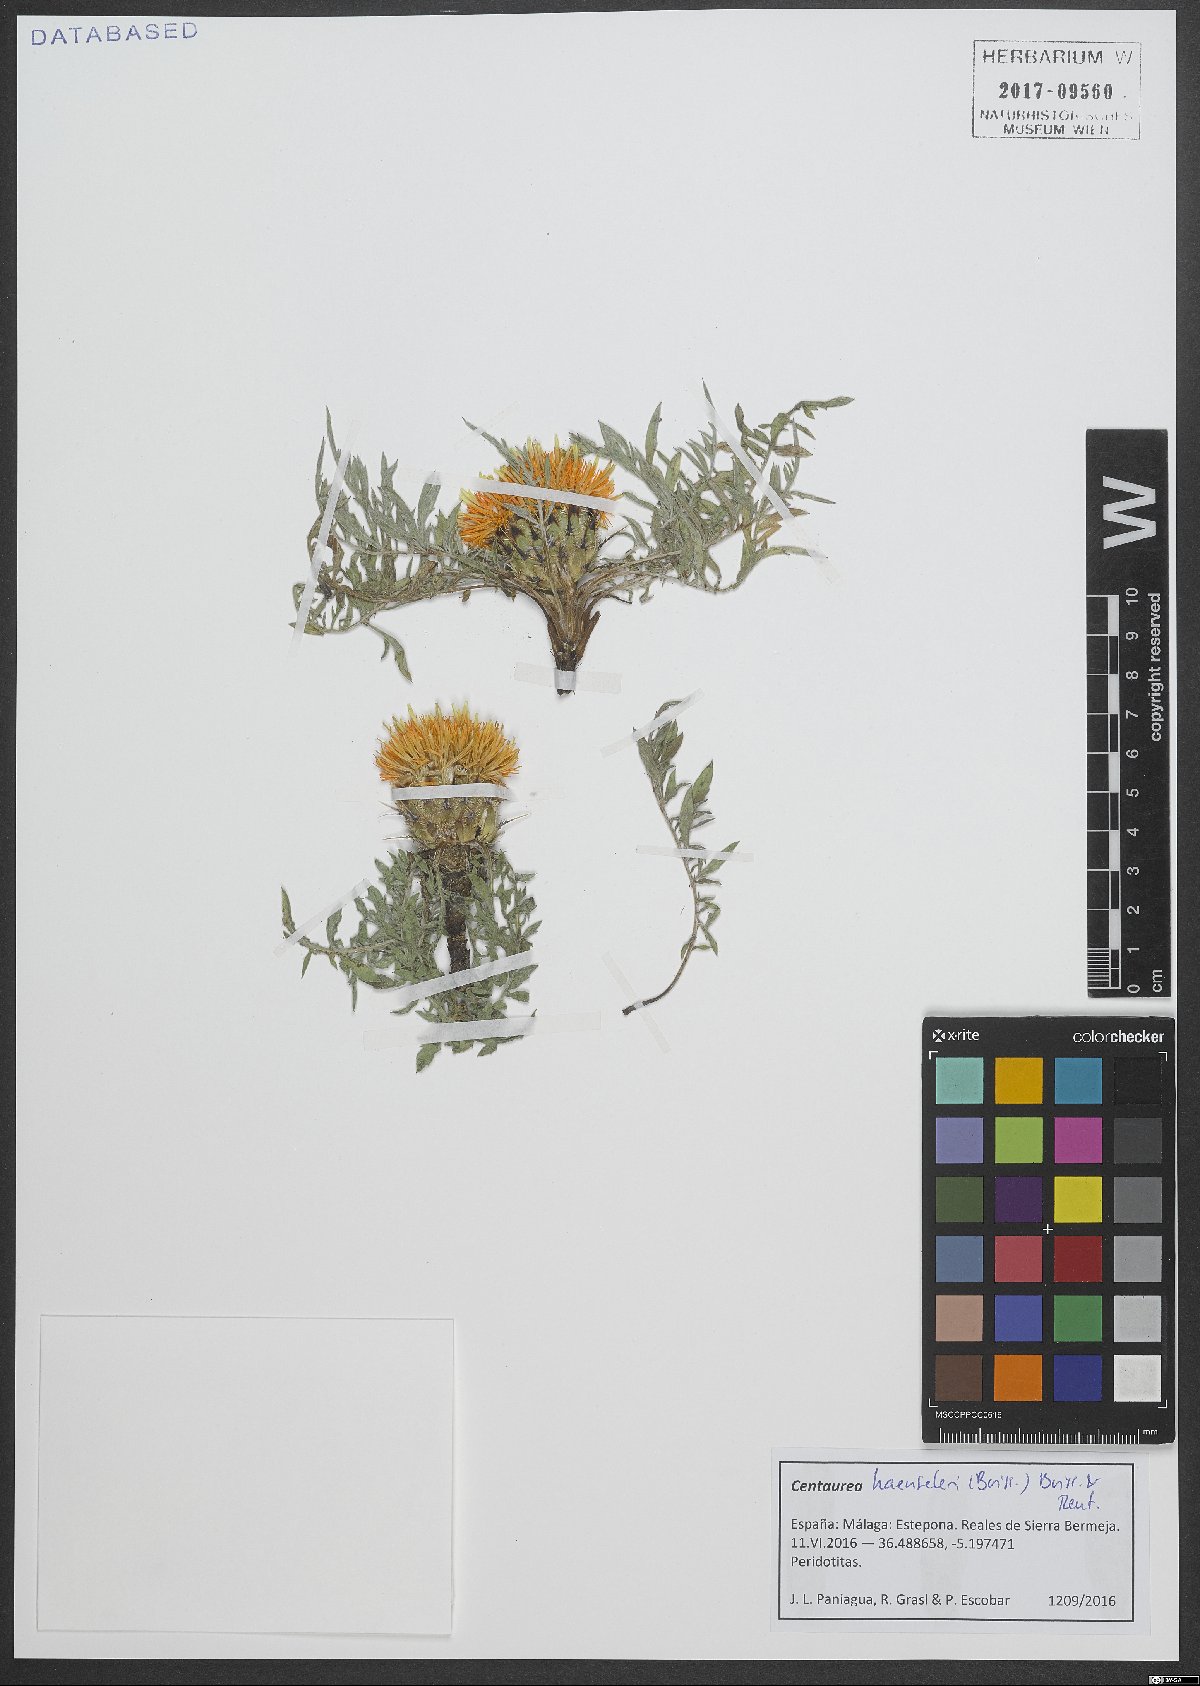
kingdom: Plantae
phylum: Tracheophyta
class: Magnoliopsida
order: Asterales
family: Asteraceae
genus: Centaurea
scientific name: Centaurea haenseleri
